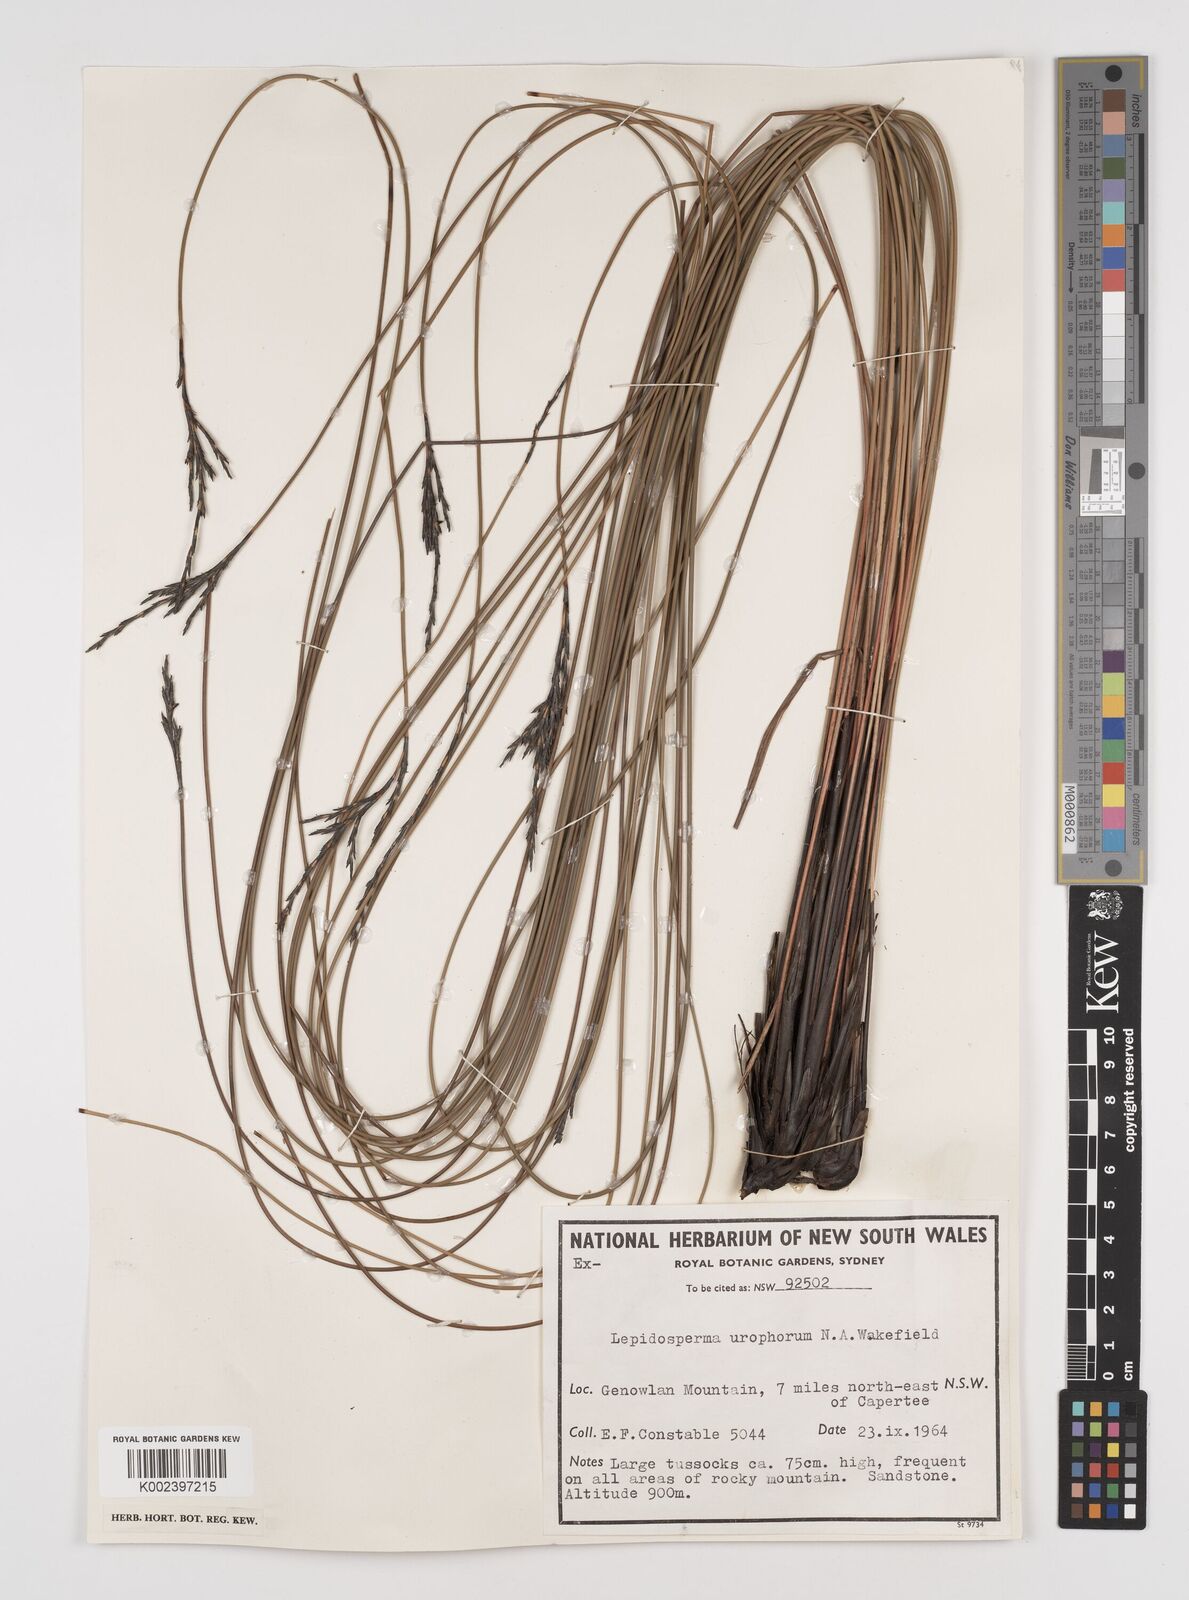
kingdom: Plantae
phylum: Tracheophyta
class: Liliopsida
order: Poales
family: Cyperaceae
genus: Lepidosperma
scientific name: Lepidosperma urophorum
